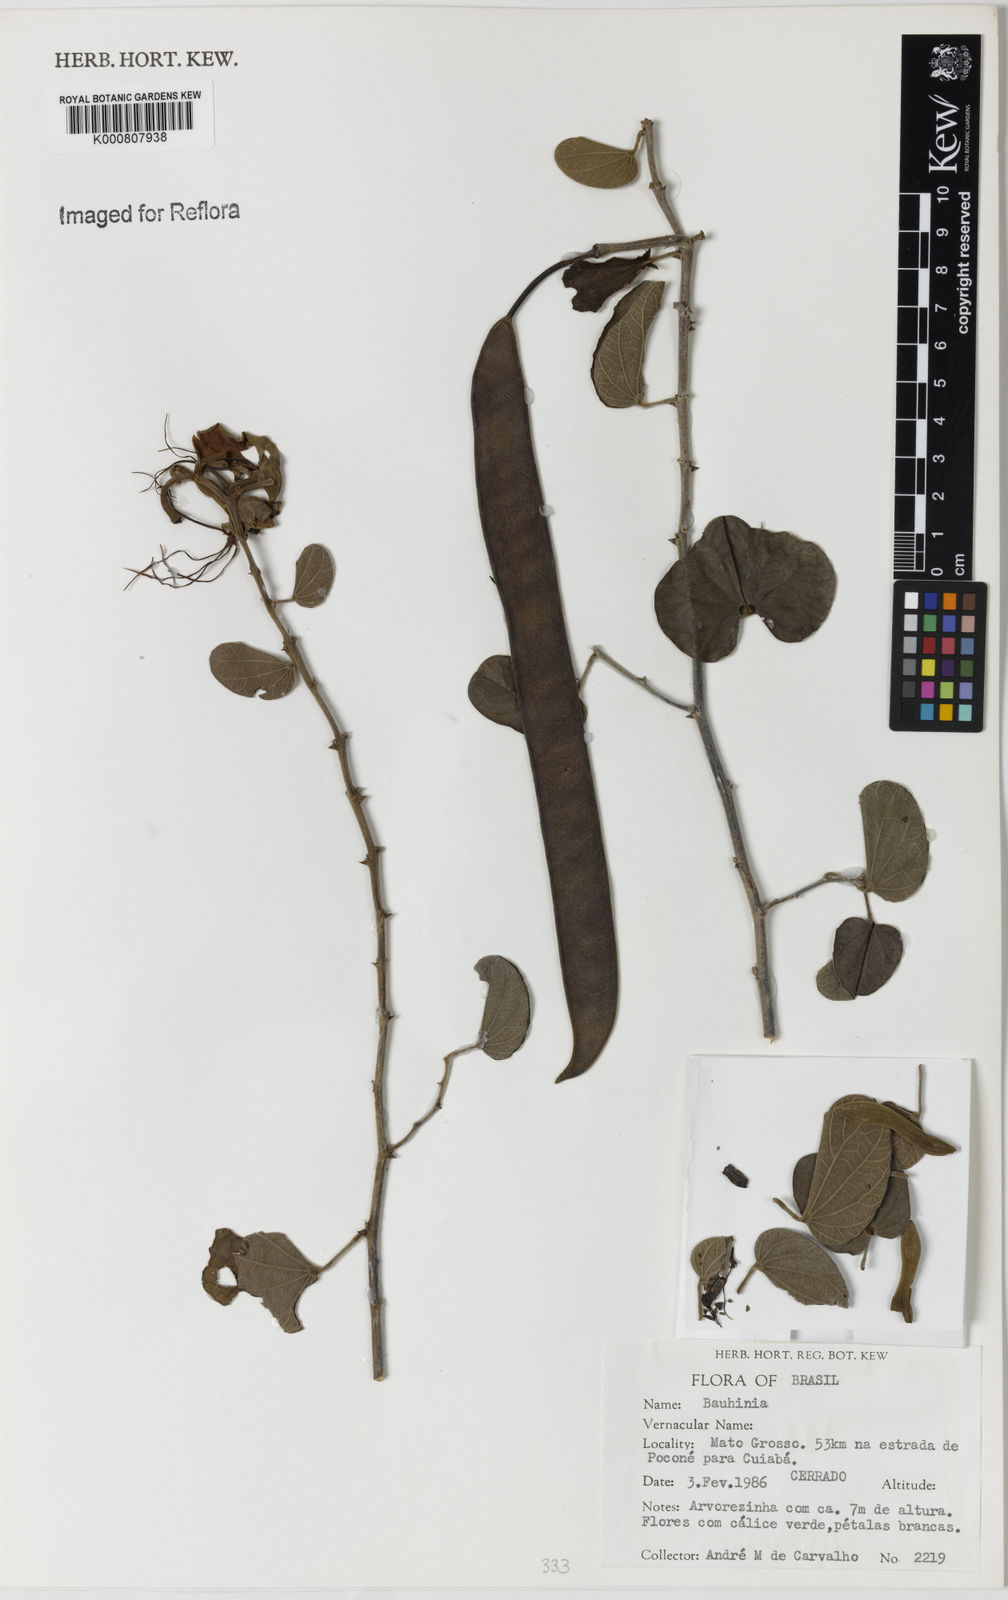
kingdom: Plantae
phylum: Tracheophyta
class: Magnoliopsida
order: Fabales
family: Fabaceae
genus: Bauhinia
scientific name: Bauhinia
